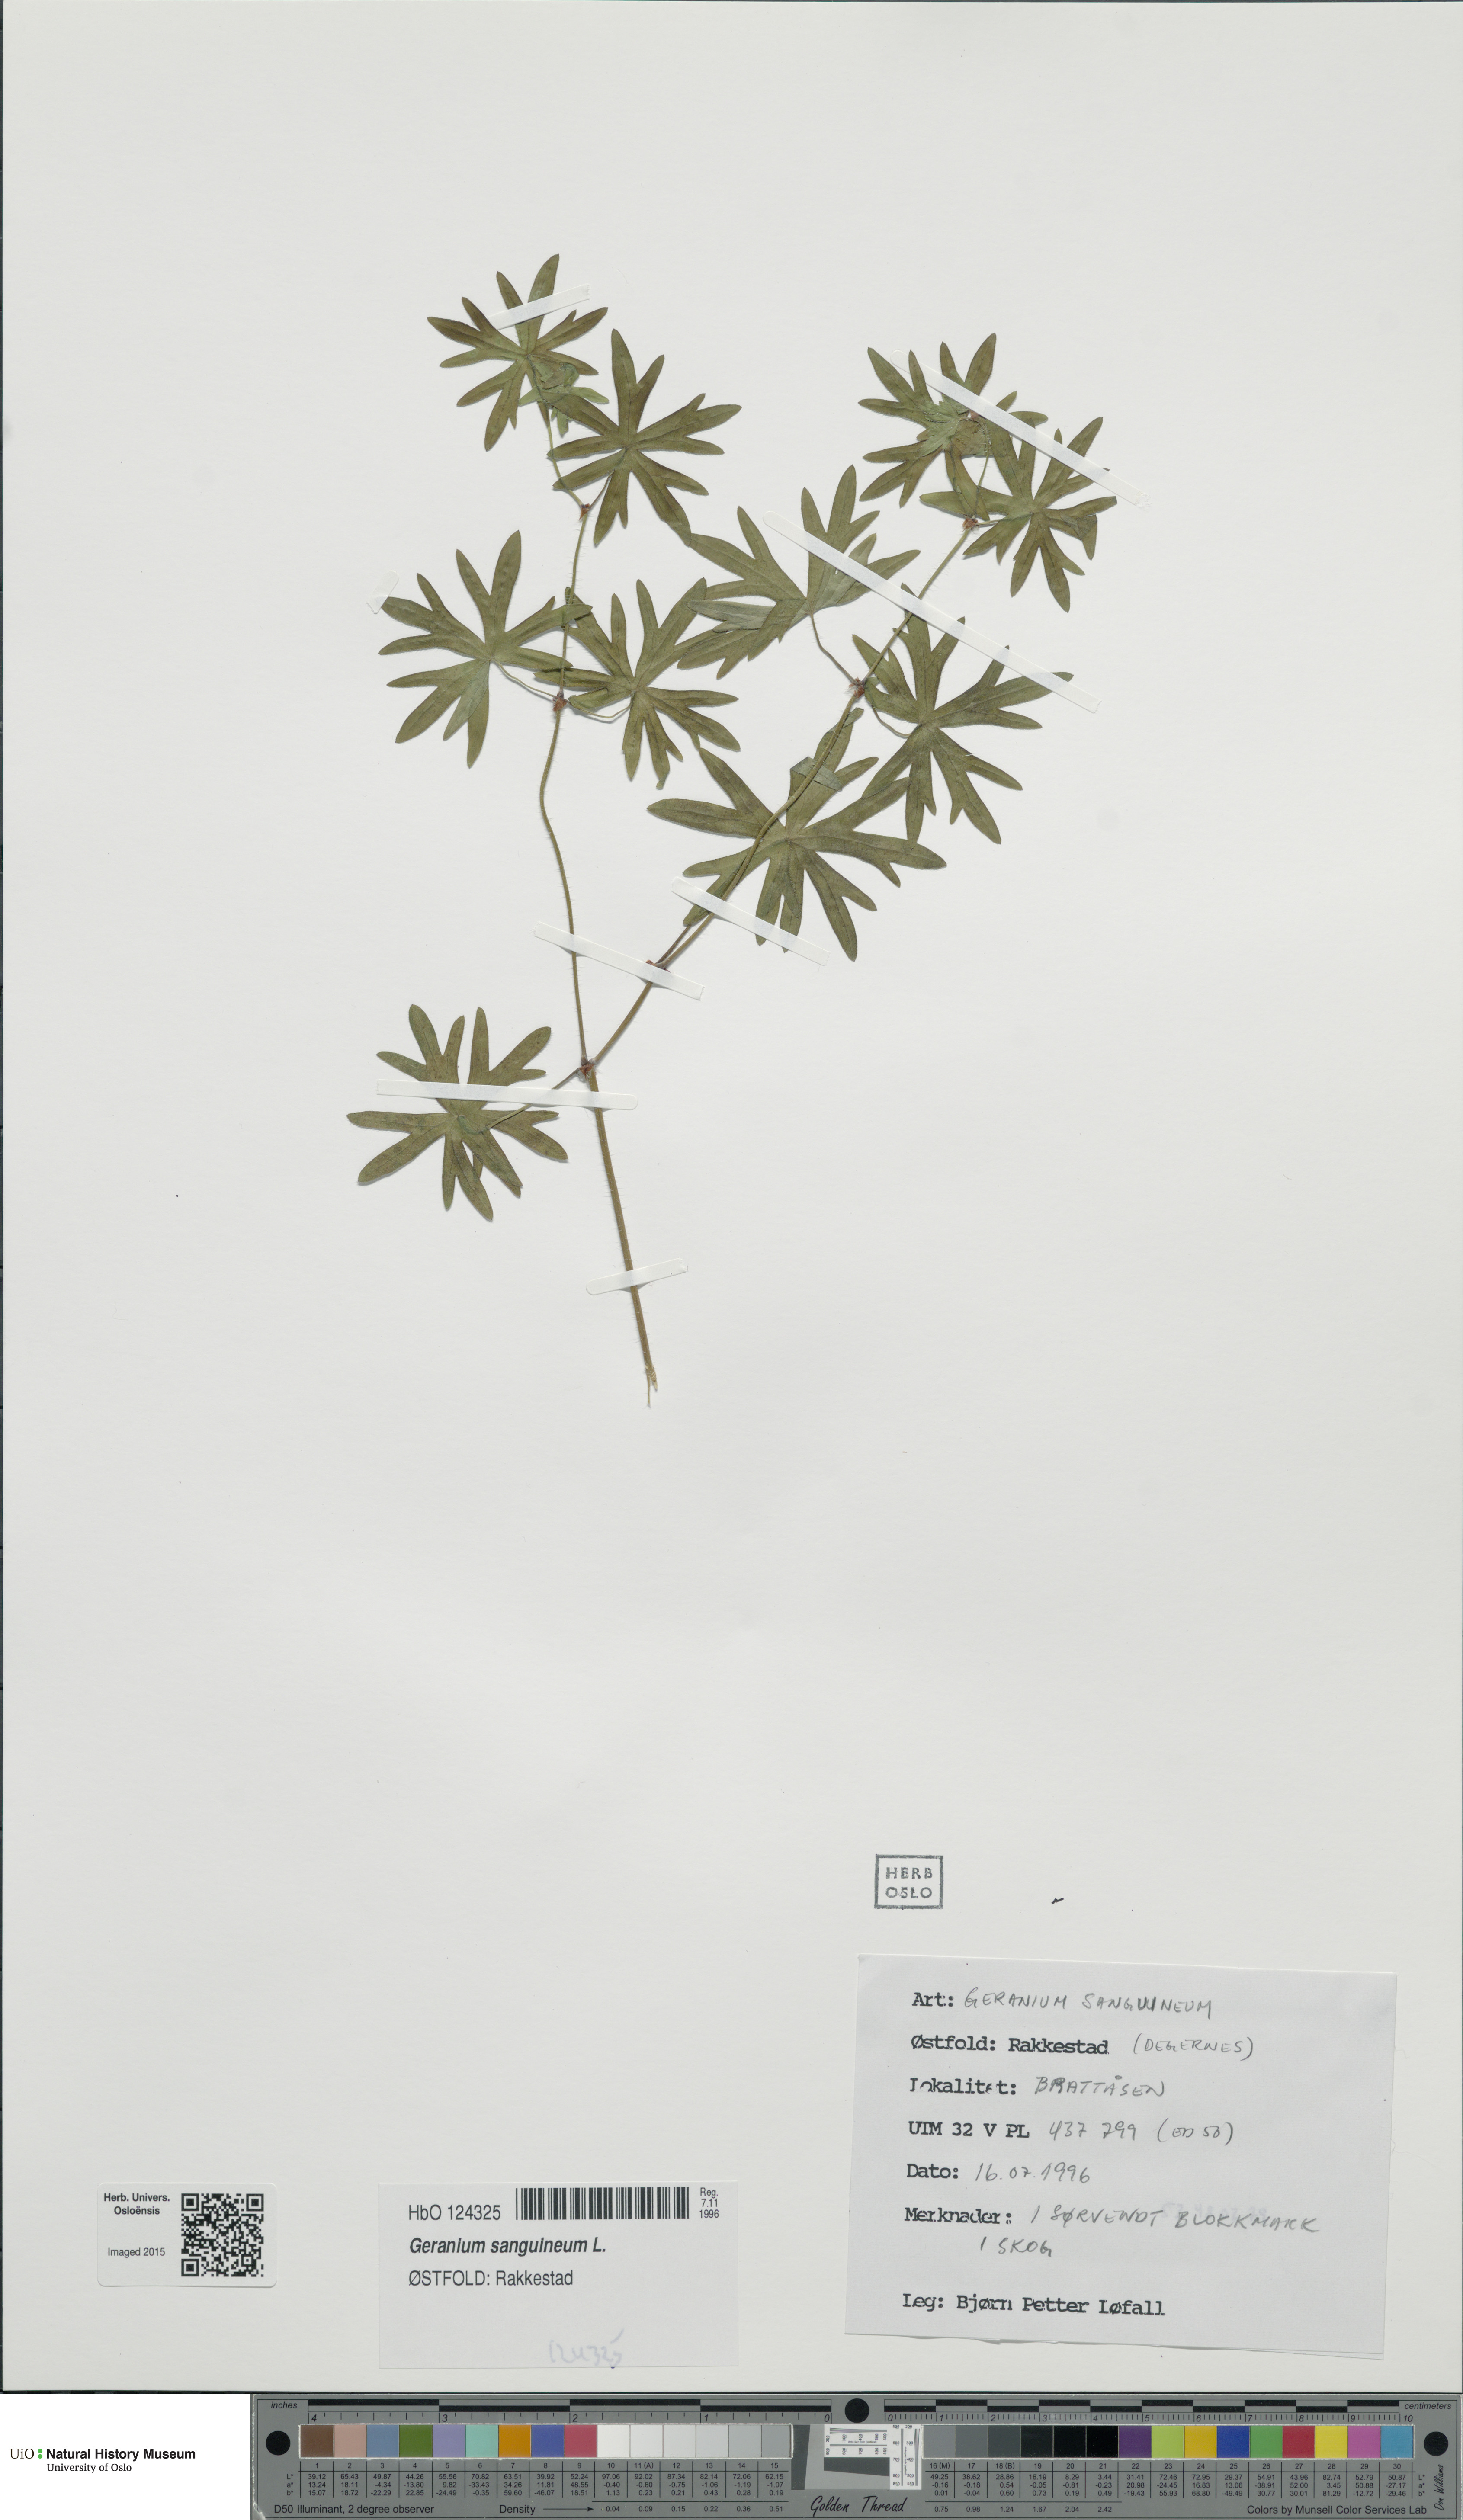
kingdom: Plantae
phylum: Tracheophyta
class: Magnoliopsida
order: Geraniales
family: Geraniaceae
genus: Geranium
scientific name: Geranium sanguineum
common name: Bloody crane's-bill
